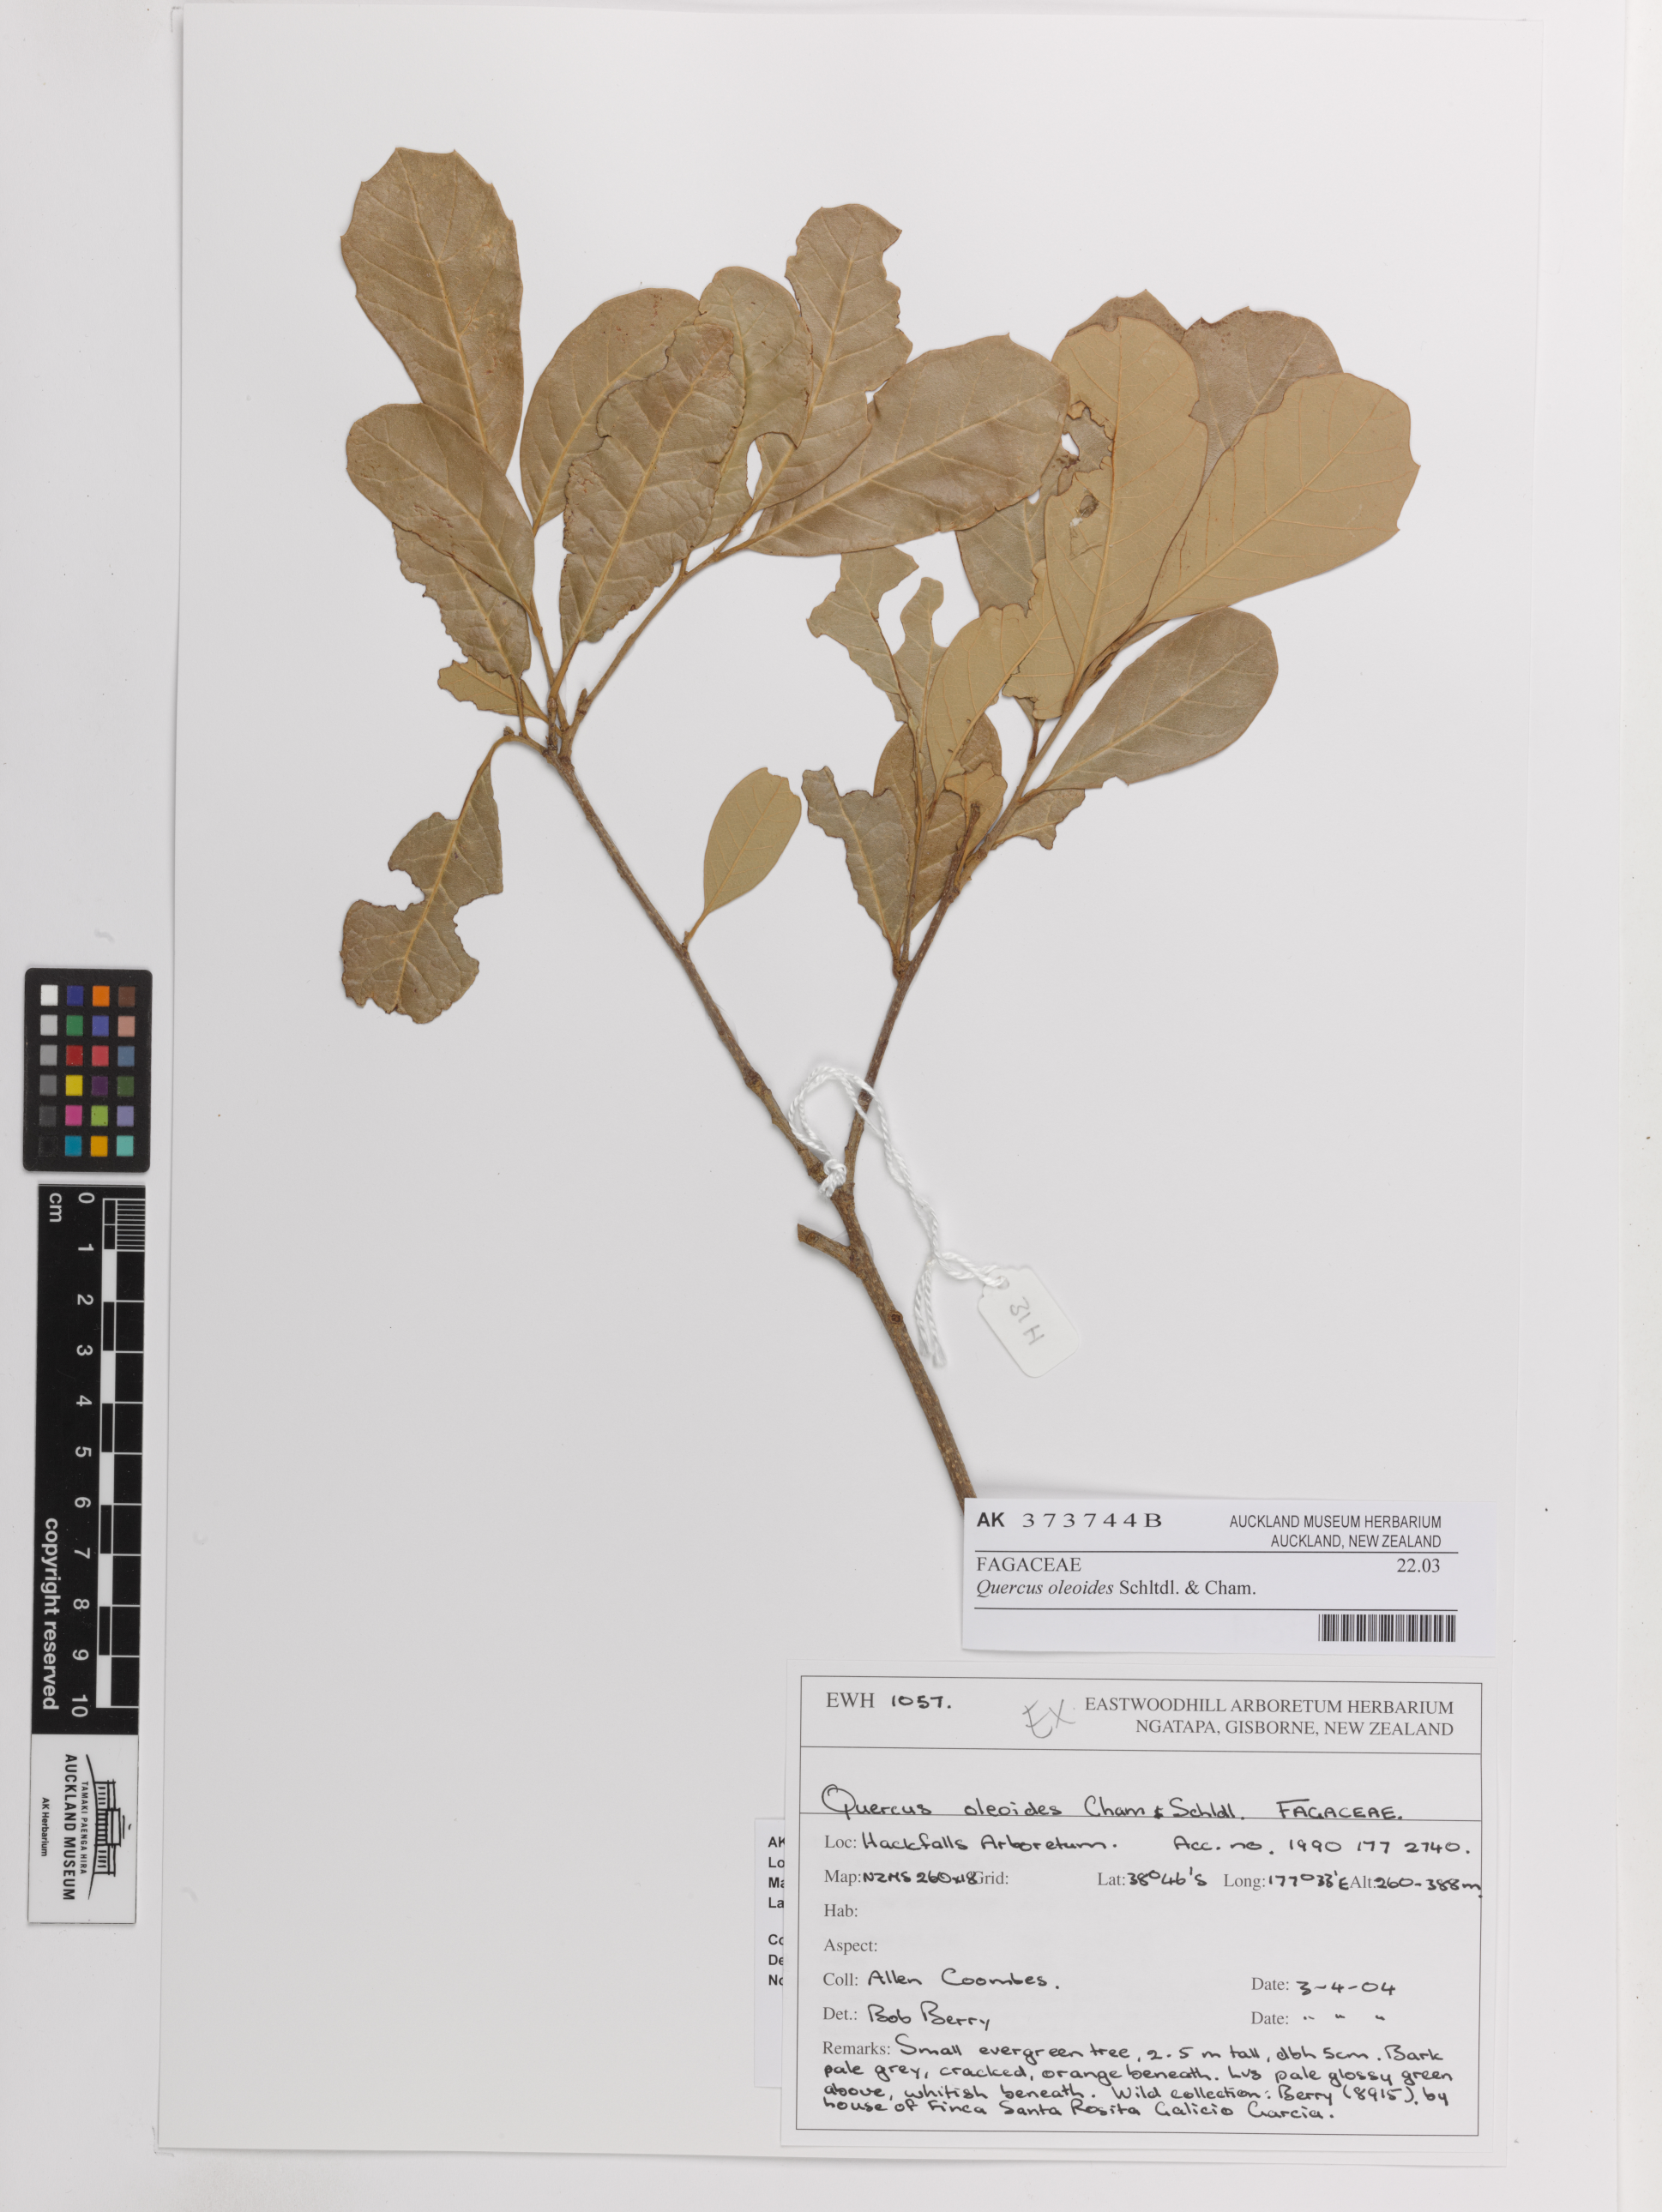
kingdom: Plantae
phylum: Tracheophyta
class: Magnoliopsida
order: Fagales
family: Fagaceae
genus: Quercus
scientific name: Quercus oleoides
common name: White oak
